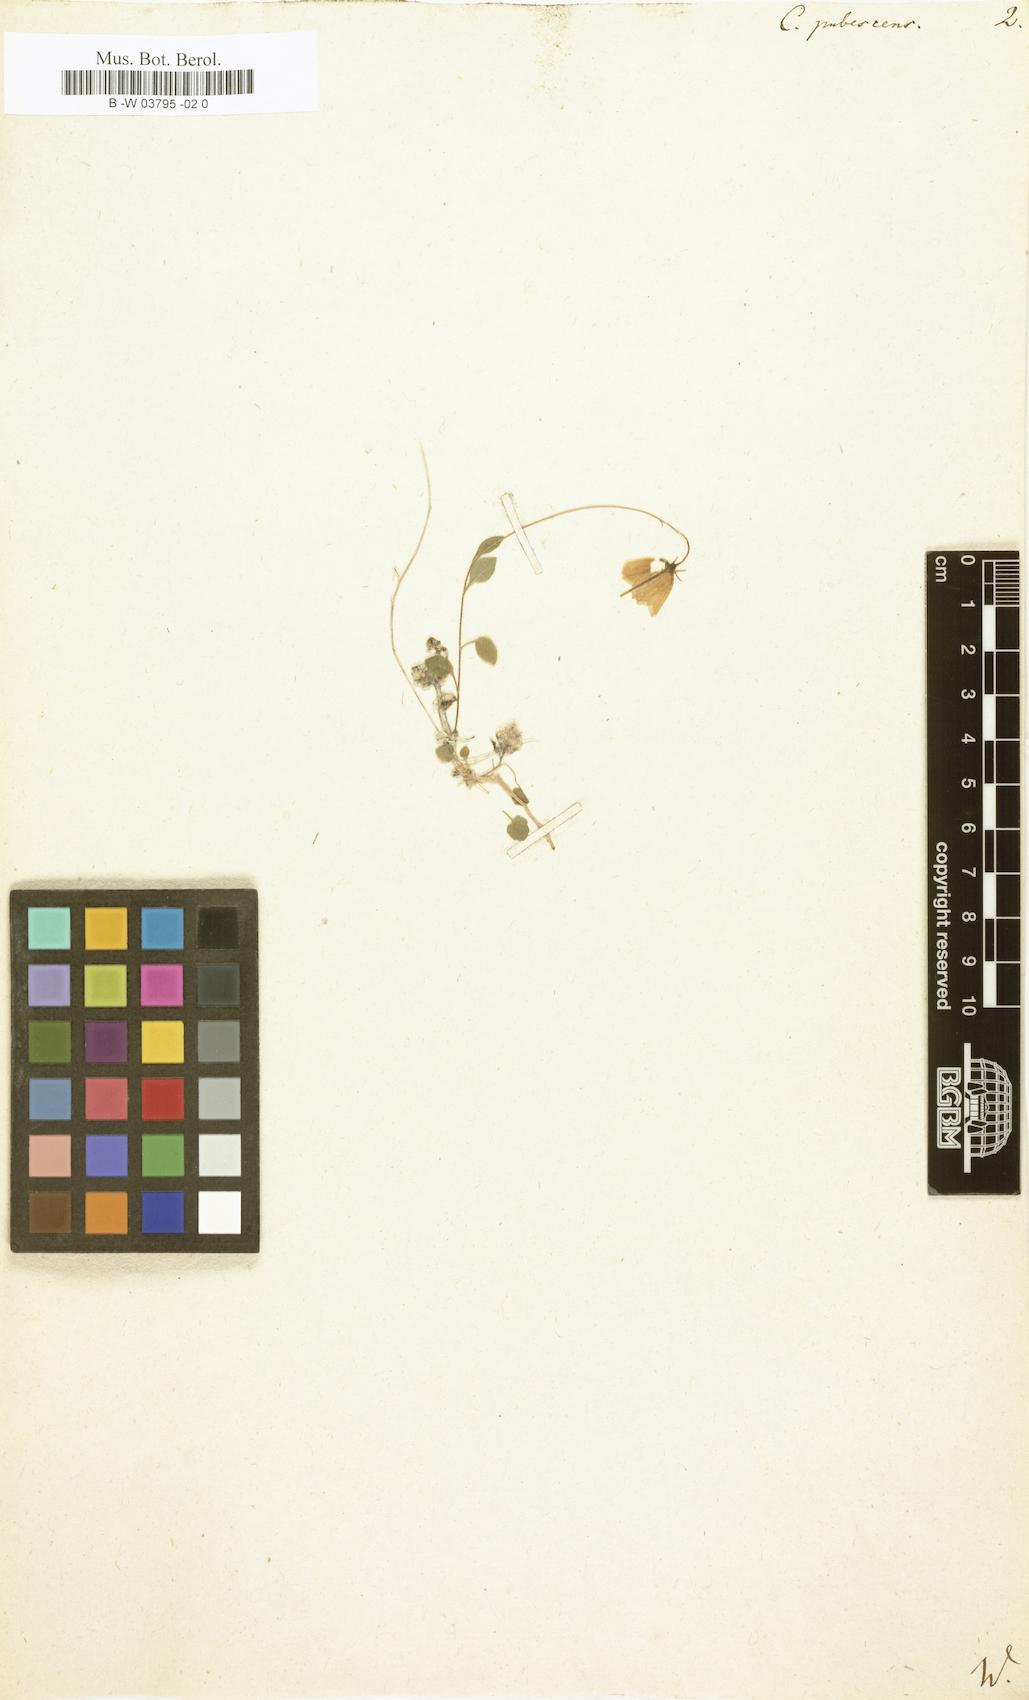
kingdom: Plantae
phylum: Tracheophyta
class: Magnoliopsida
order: Asterales
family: Campanulaceae
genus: Campanula
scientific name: Campanula
